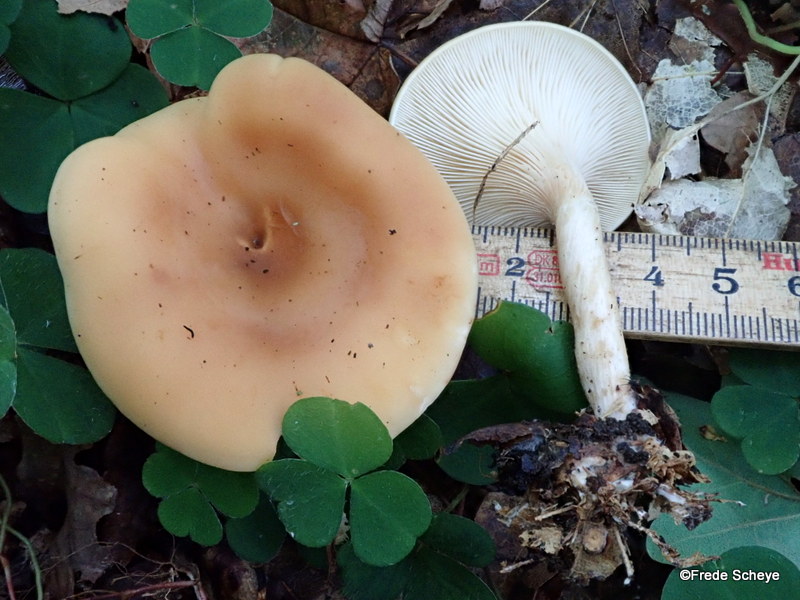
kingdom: Fungi
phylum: Basidiomycota
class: Agaricomycetes
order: Agaricales
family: Tricholomataceae
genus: Infundibulicybe
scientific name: Infundibulicybe gibba
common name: almindelig tragthat
